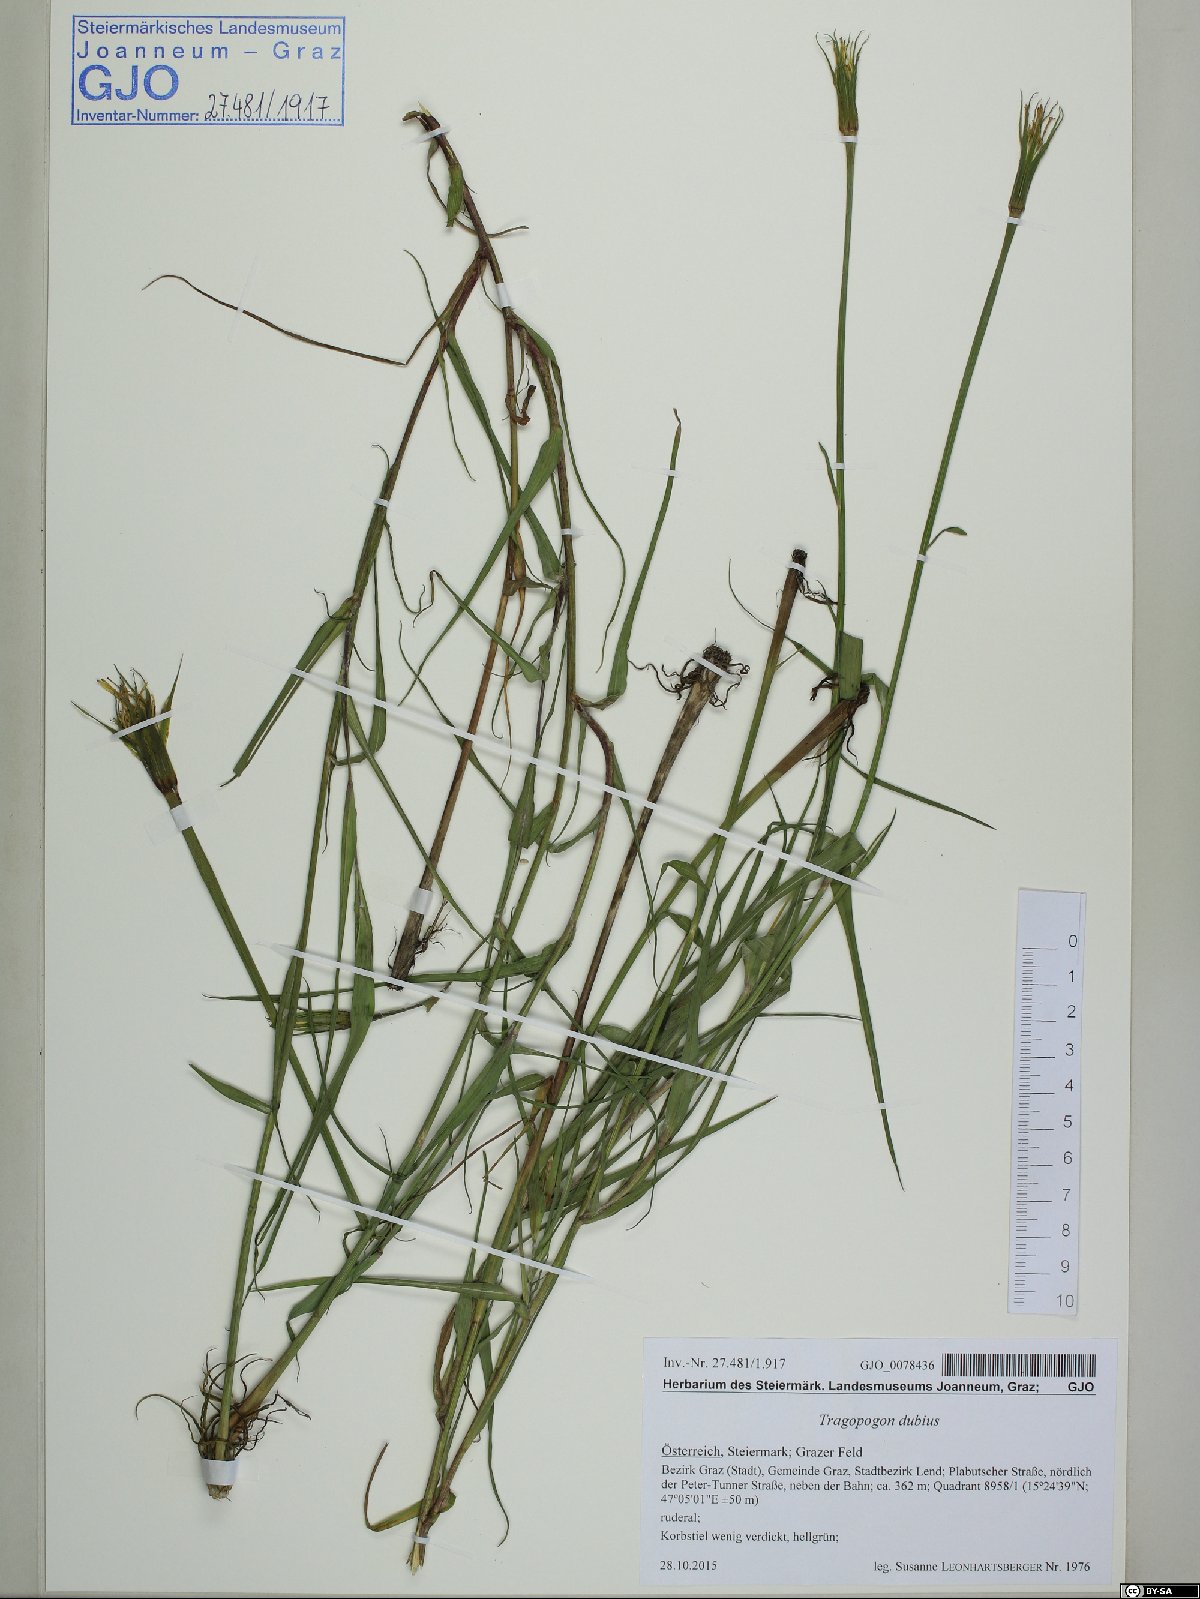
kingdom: Plantae
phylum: Tracheophyta
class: Magnoliopsida
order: Asterales
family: Asteraceae
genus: Tragopogon
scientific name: Tragopogon dubius
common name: Yellow salsify
